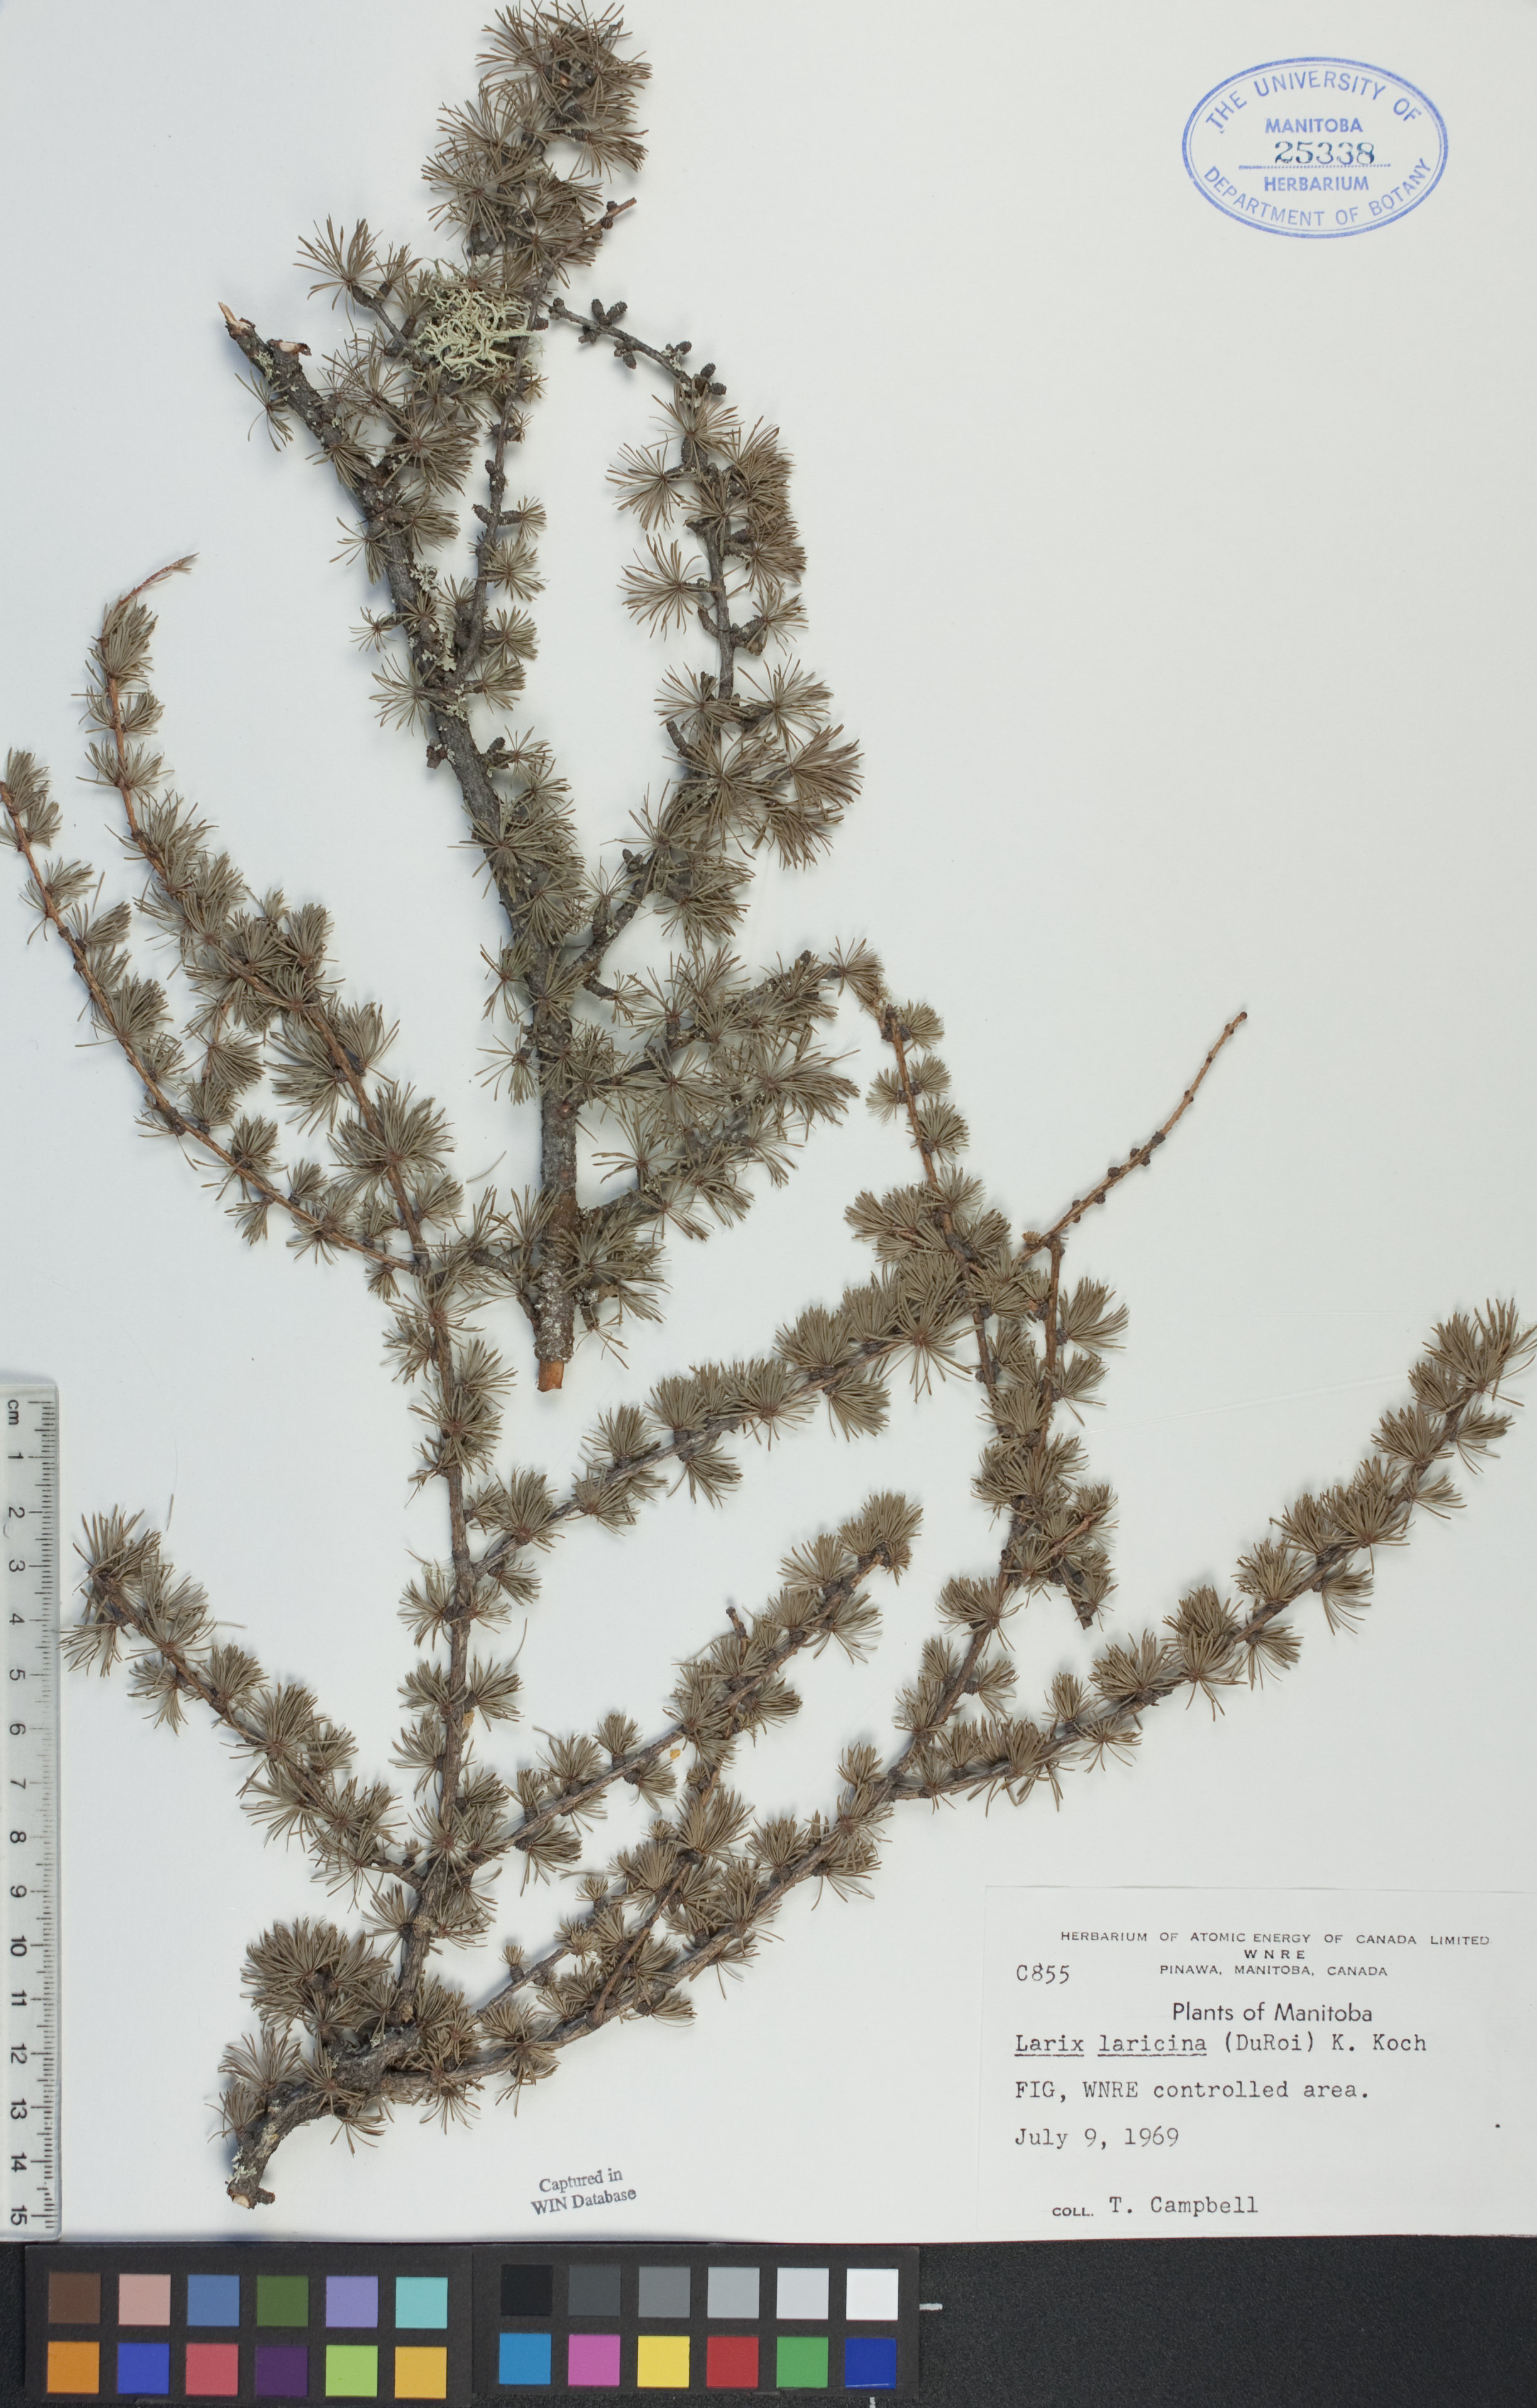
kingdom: Plantae
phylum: Tracheophyta
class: Pinopsida
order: Pinales
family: Pinaceae
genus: Larix
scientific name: Larix laricina
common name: American larch
